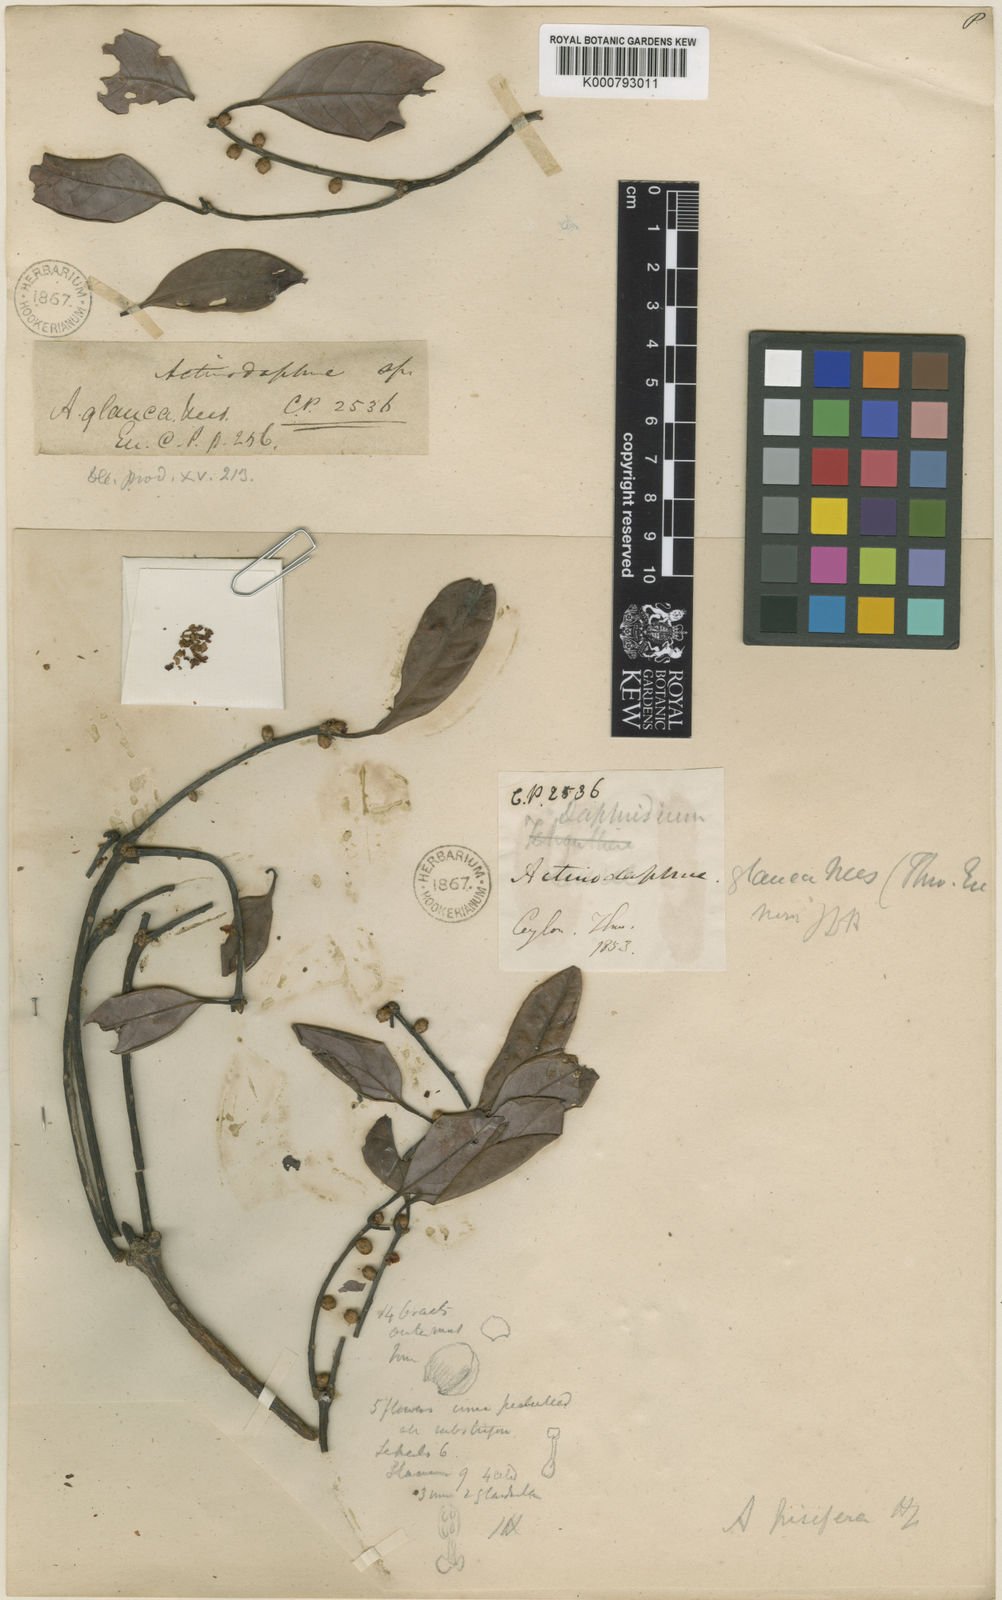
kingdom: Plantae
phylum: Tracheophyta
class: Magnoliopsida
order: Laurales
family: Lauraceae
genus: Actinodaphne
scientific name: Actinodaphne ambigua
